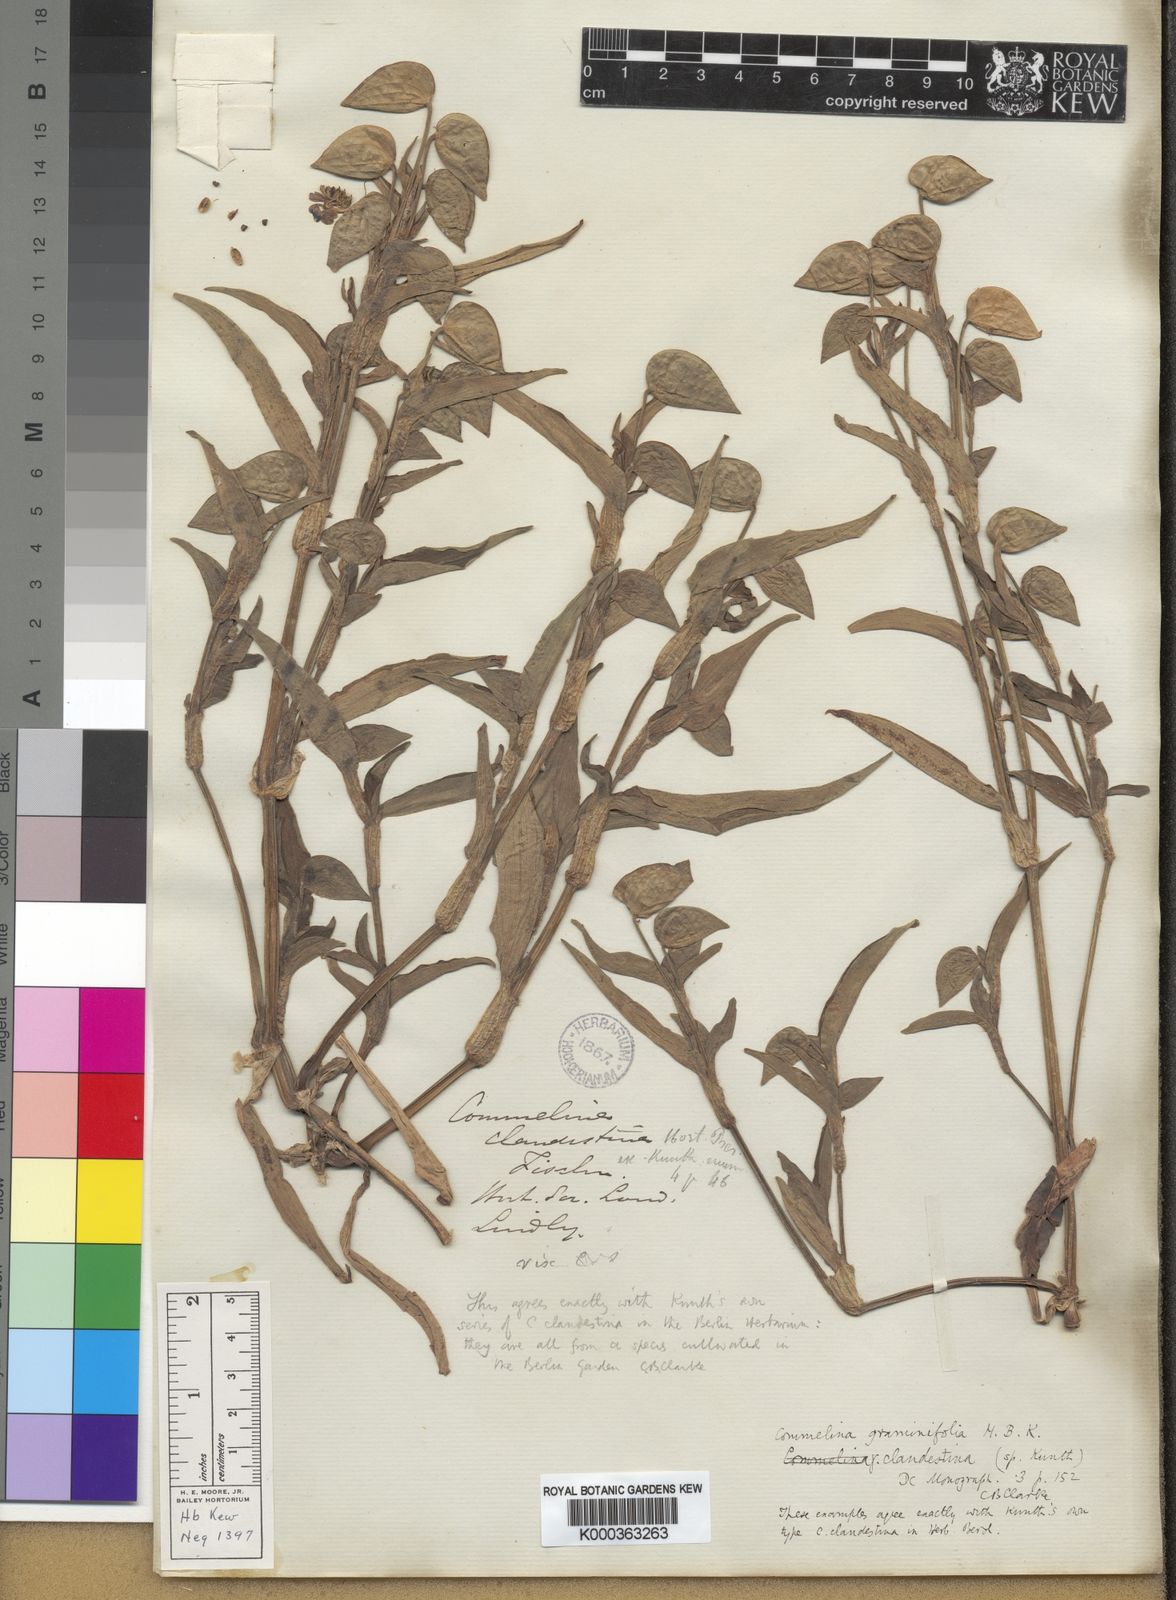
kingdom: Plantae
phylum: Tracheophyta
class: Liliopsida
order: Commelinales
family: Commelinaceae
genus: Commelina
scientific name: Commelina tuberosa
